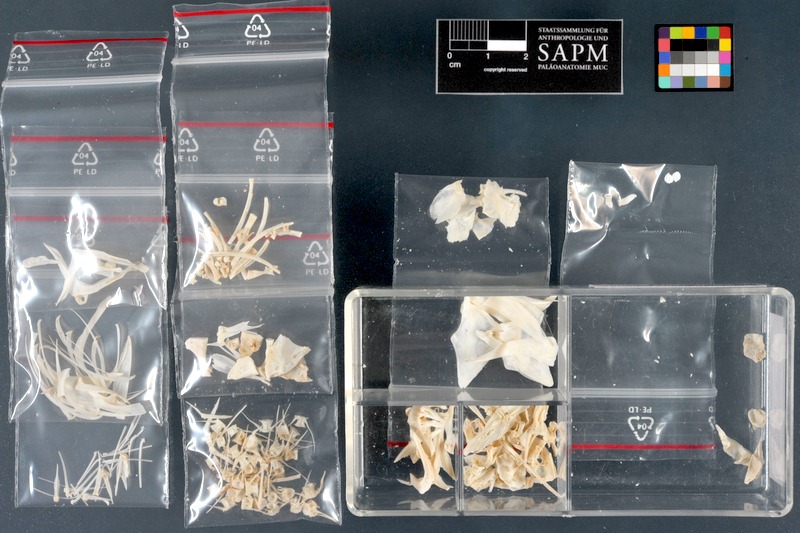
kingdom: Animalia
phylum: Chordata
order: Cypriniformes
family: Cyprinidae
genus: Oreoleuciscus
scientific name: Oreoleuciscus potanini
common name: Altai osman
